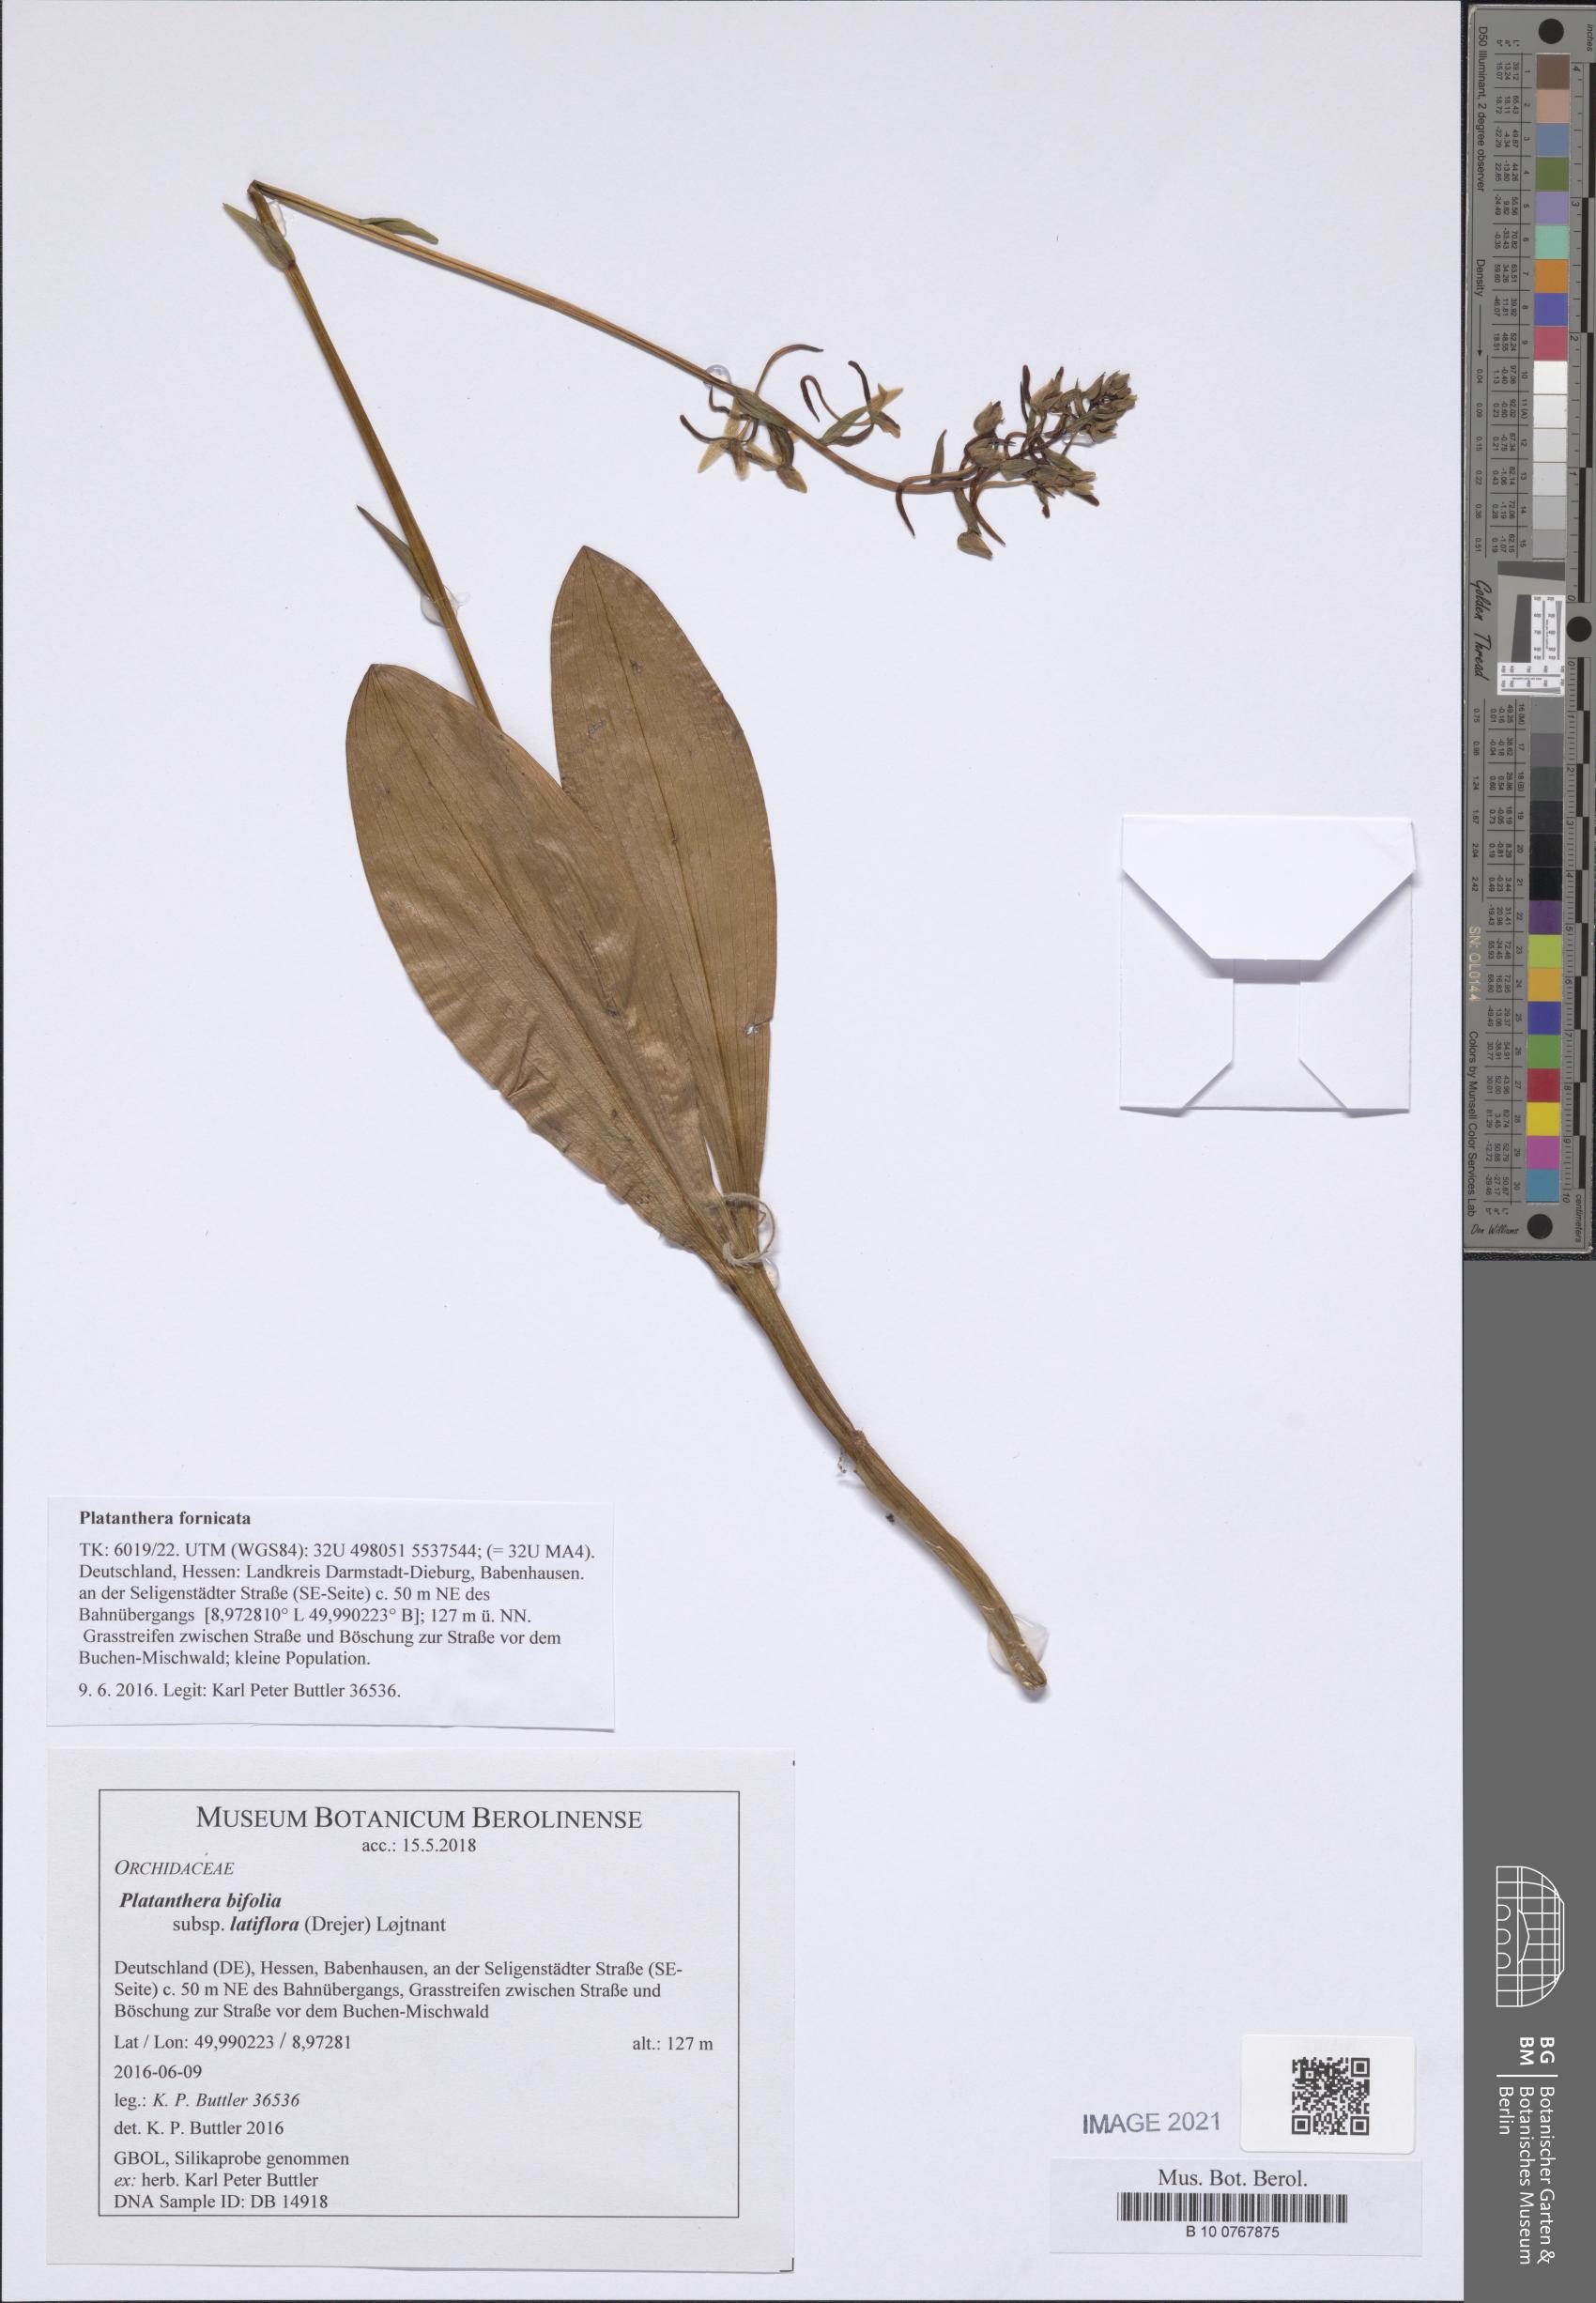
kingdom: Plantae
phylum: Tracheophyta
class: Liliopsida
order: Asparagales
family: Orchidaceae
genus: Platanthera
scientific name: Platanthera bifolia
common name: Lesser butterfly-orchid
